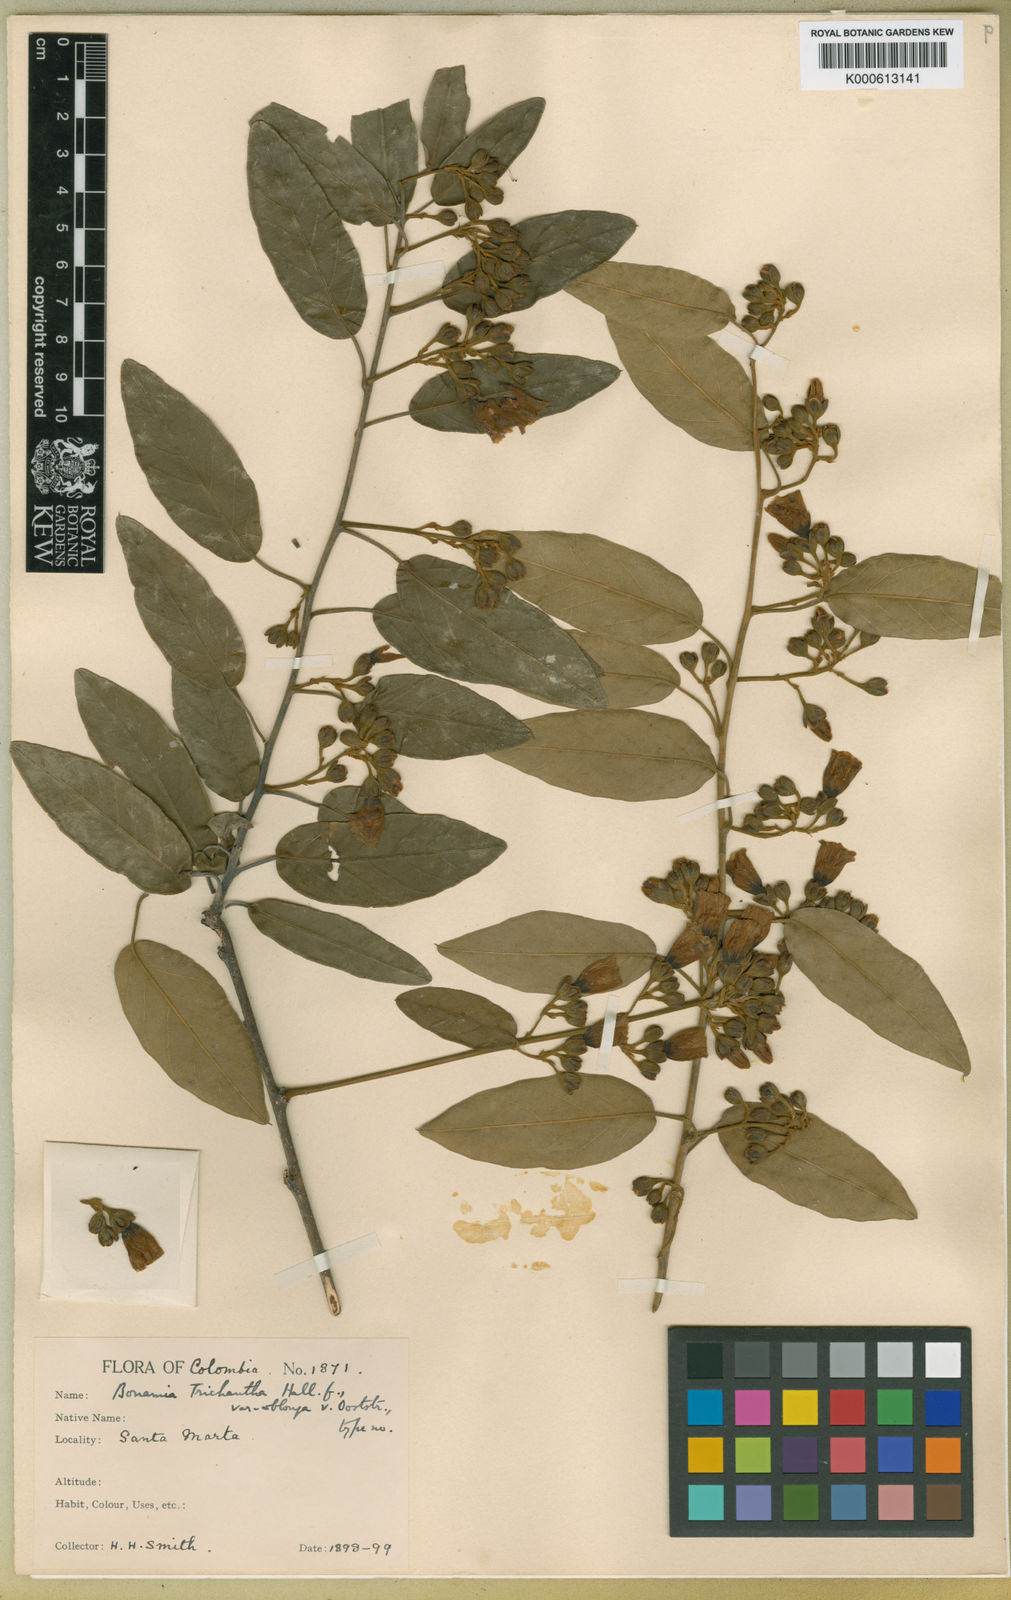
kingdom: Plantae
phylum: Tracheophyta
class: Magnoliopsida
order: Solanales
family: Convolvulaceae
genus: Bonamia
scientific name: Bonamia trichantha
